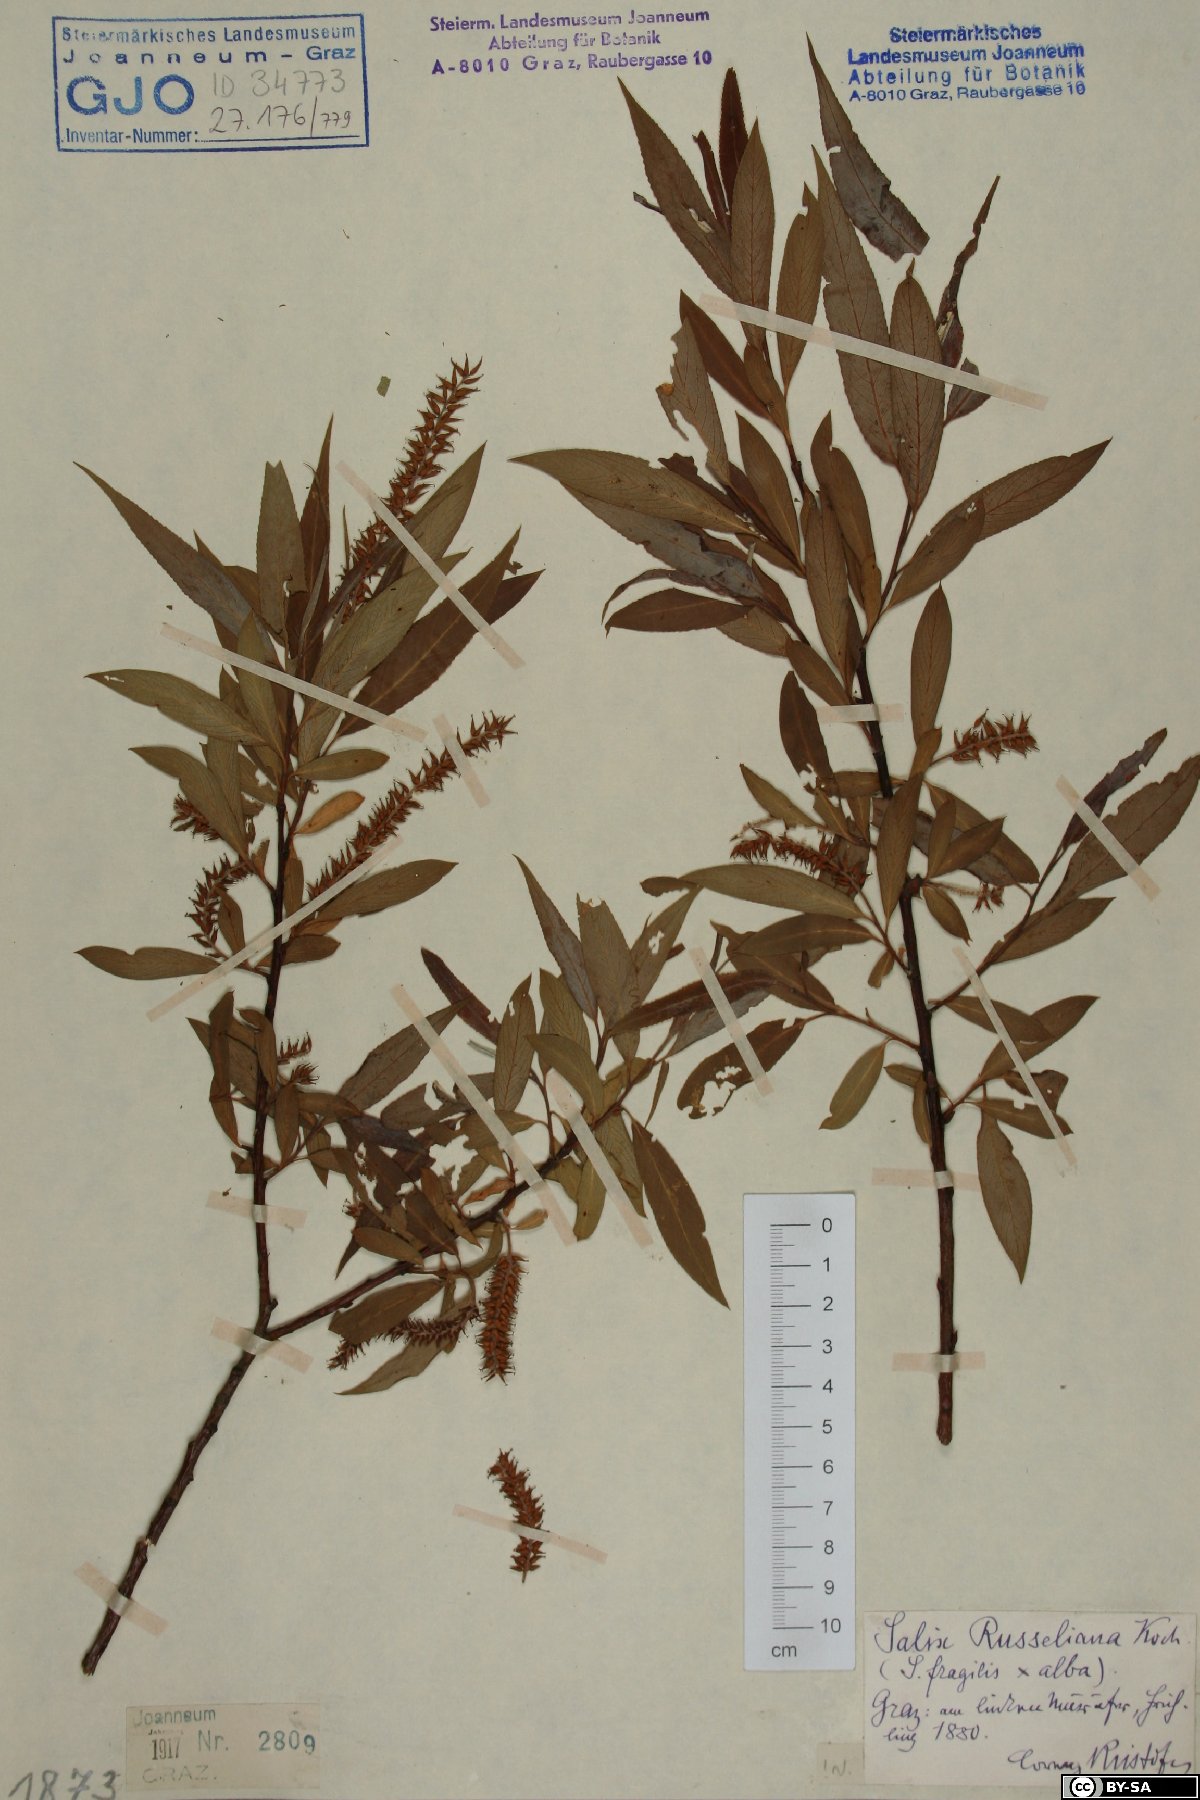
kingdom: Plantae
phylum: Tracheophyta
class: Magnoliopsida
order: Malpighiales
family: Salicaceae
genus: Salix
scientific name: Salix rubens
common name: Hybrid crack willow
